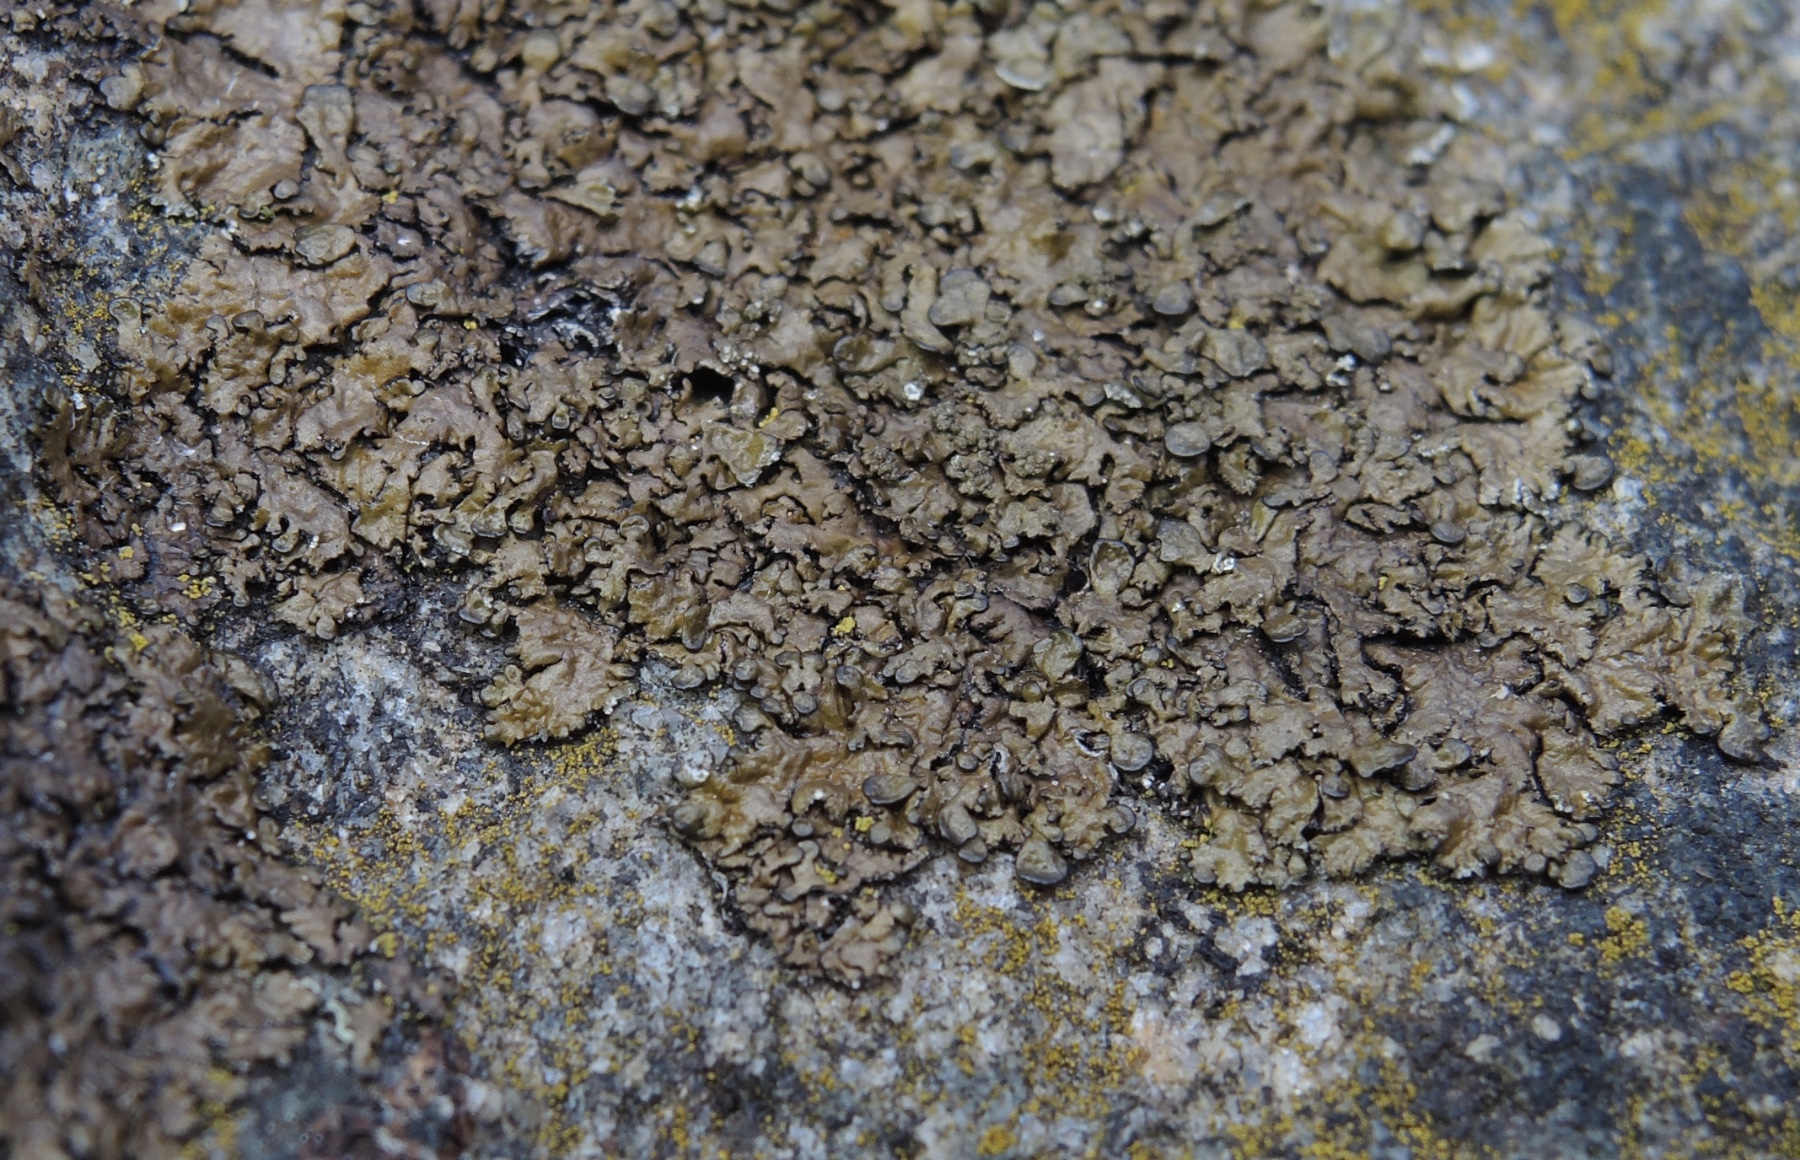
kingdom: Fungi
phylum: Ascomycota
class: Lecanoromycetes
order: Lecanorales
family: Parmeliaceae
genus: Xanthoparmelia
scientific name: Xanthoparmelia verruculifera
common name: småknoppet skållav
